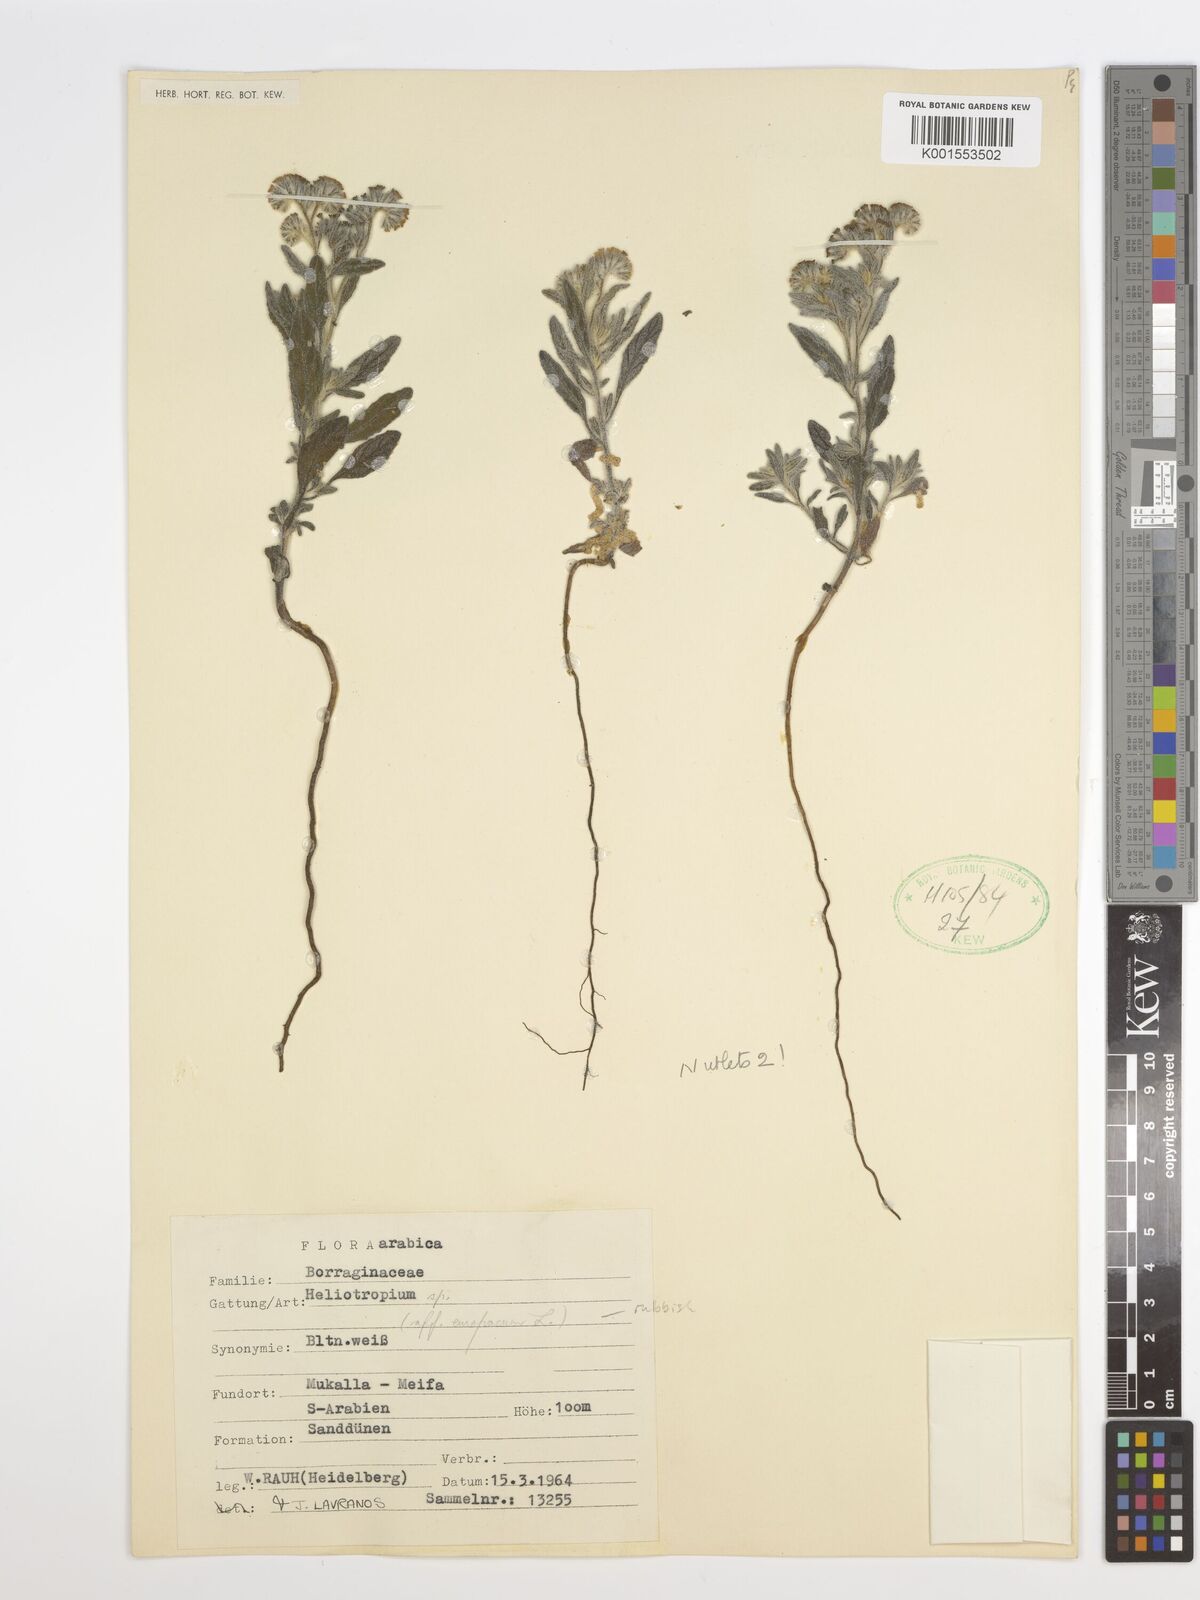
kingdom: Plantae
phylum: Tracheophyta
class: Magnoliopsida
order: Boraginales
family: Heliotropiaceae
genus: Heliotropium
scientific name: Heliotropium
